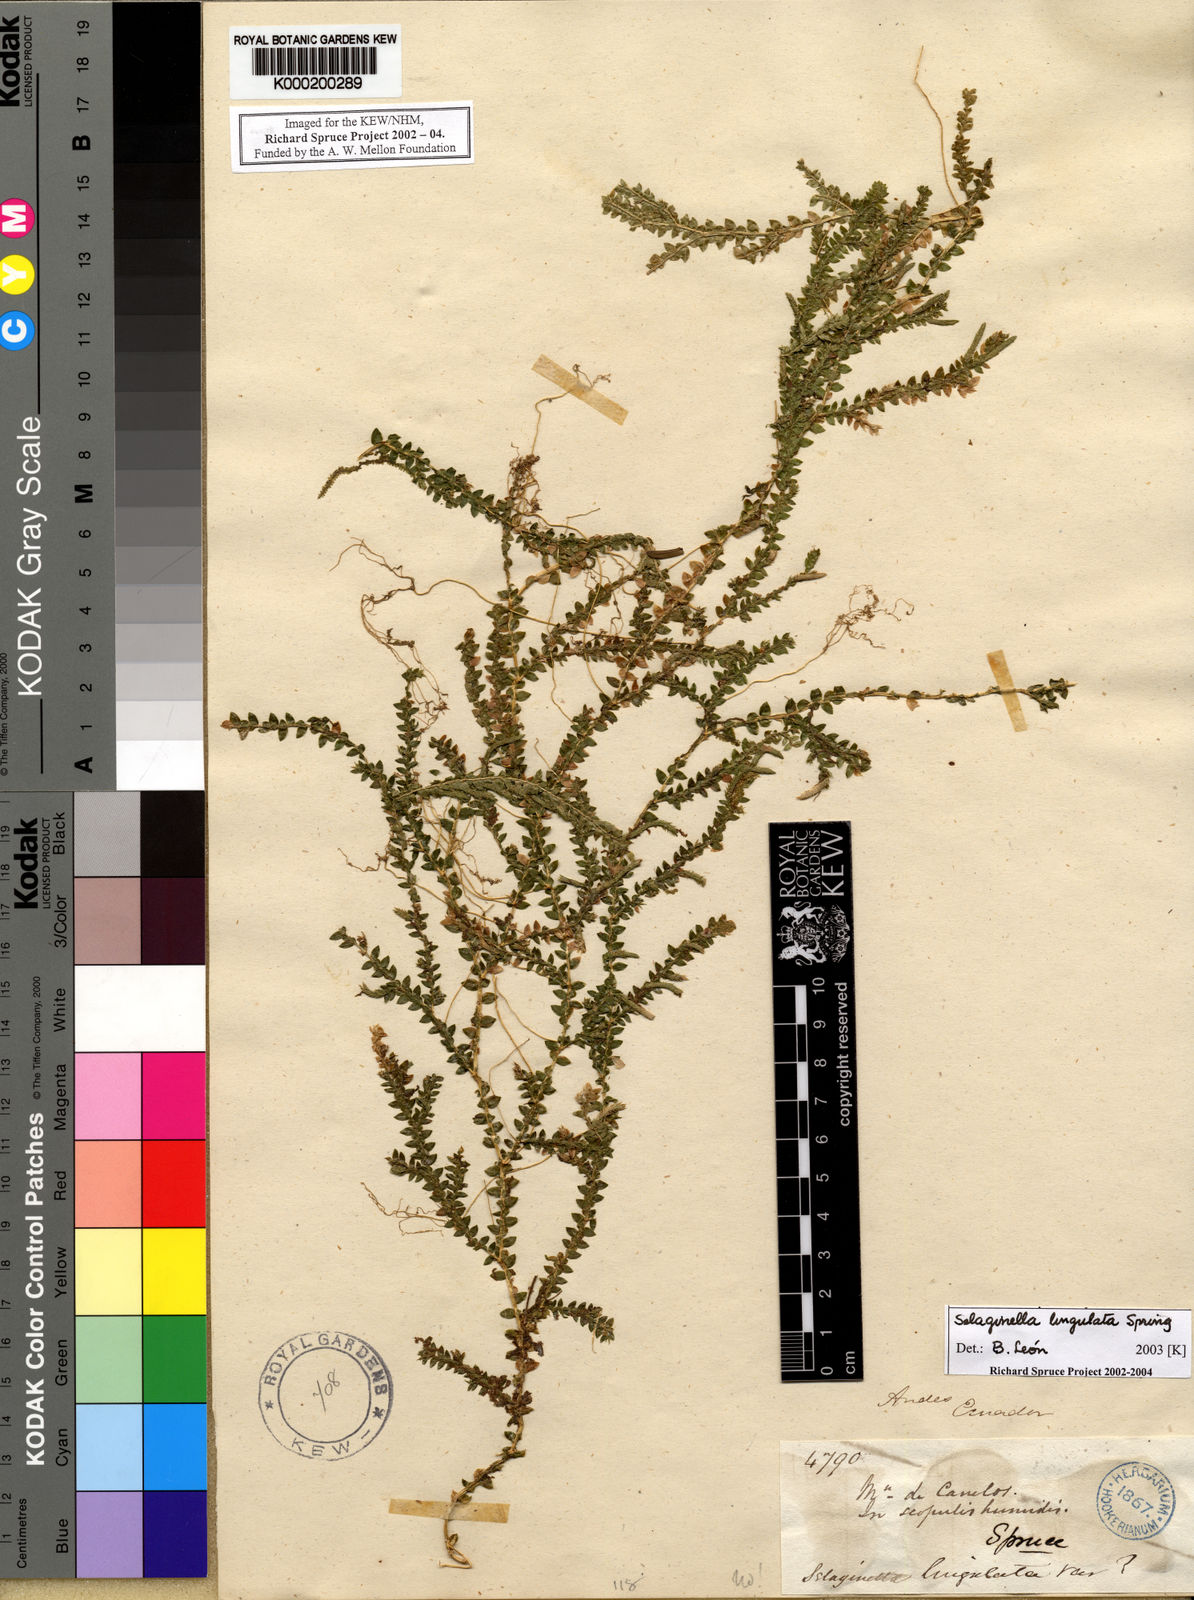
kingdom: Plantae
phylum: Tracheophyta
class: Lycopodiopsida
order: Selaginellales
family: Selaginellaceae
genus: Selaginella
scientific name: Selaginella lingulata
